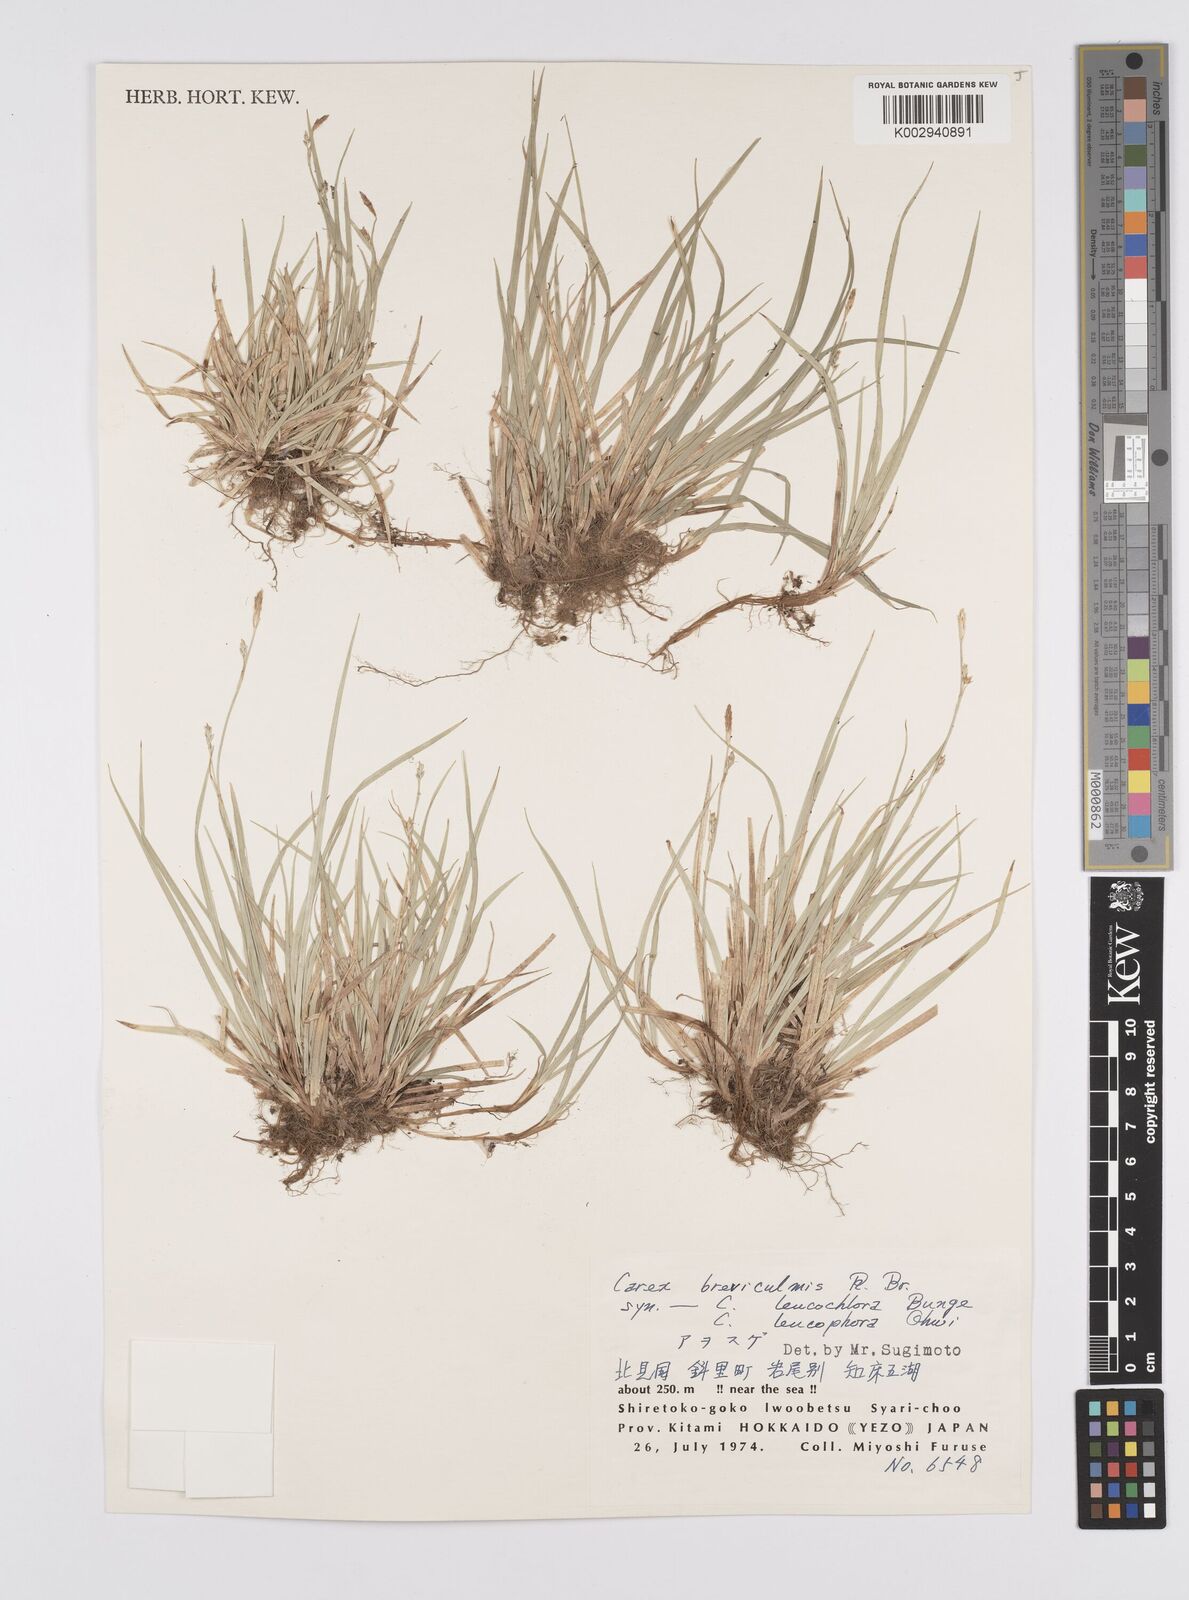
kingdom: Plantae
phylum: Tracheophyta
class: Liliopsida
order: Poales
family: Cyperaceae
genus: Carex
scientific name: Carex breviculmis
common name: Asian shortstem sedge
